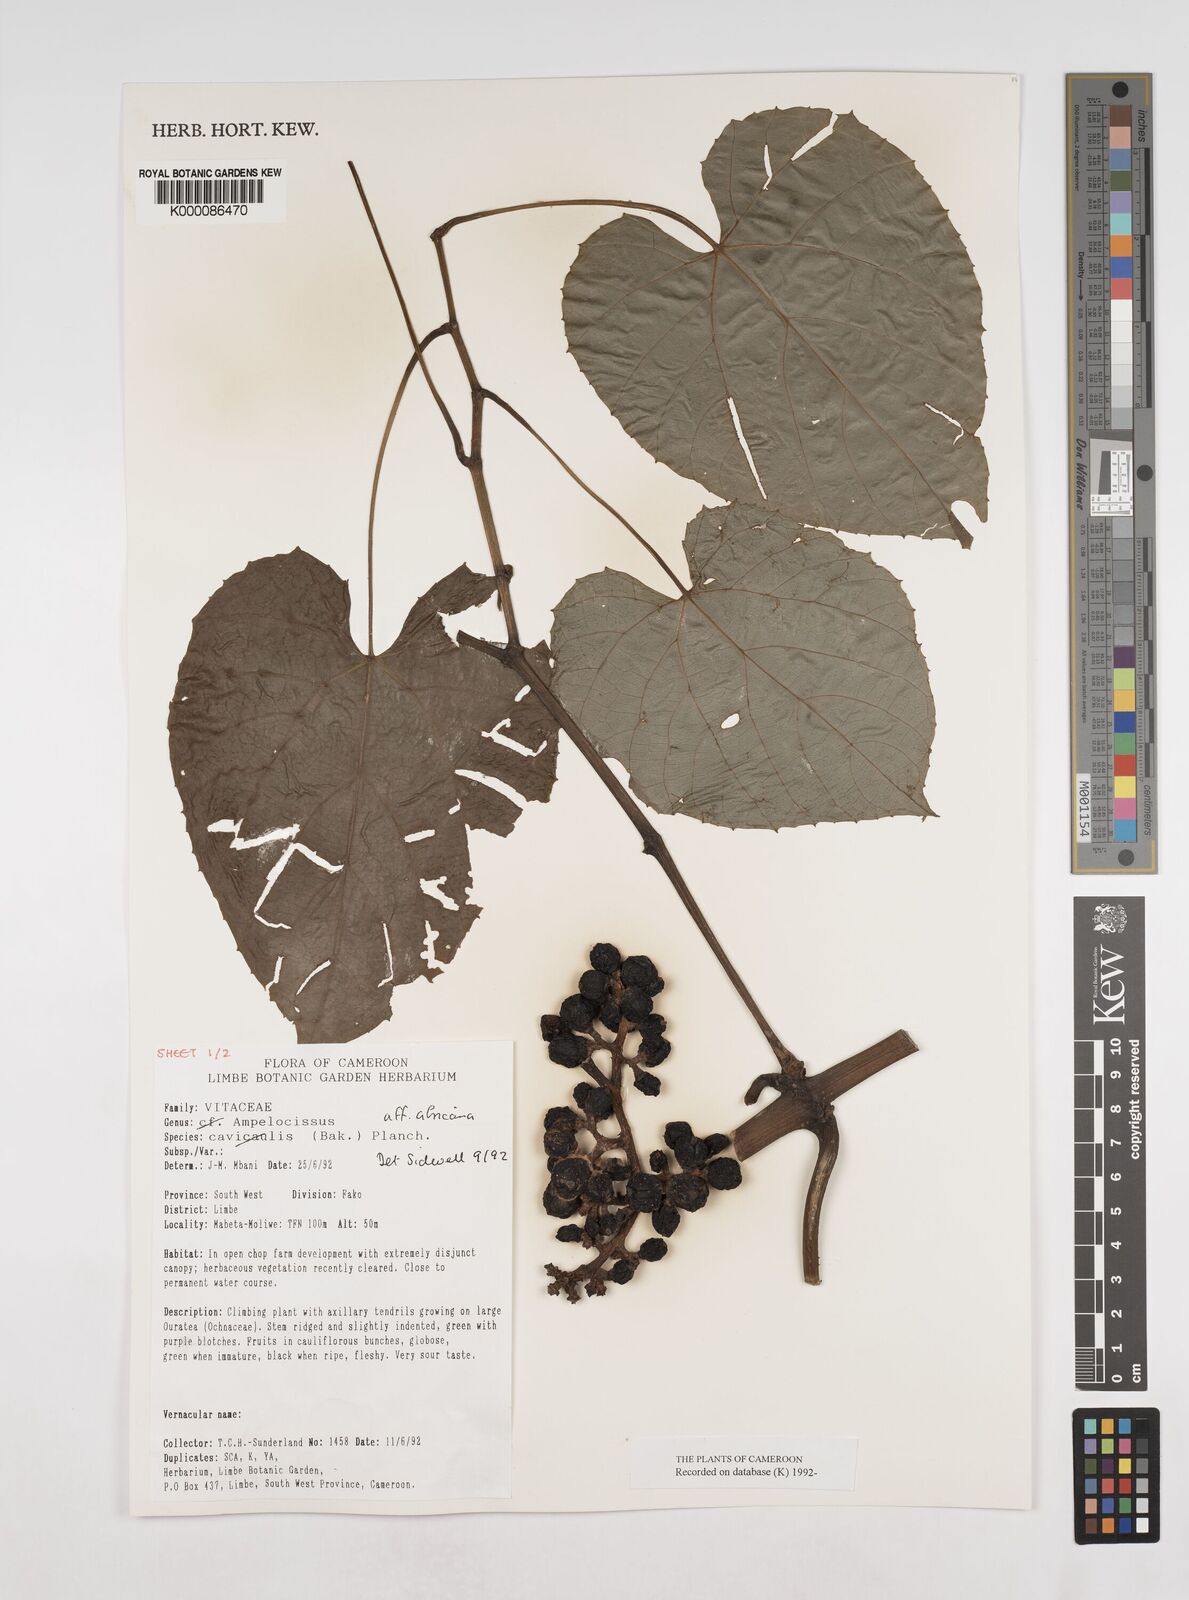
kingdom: Plantae
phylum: Tracheophyta
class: Magnoliopsida
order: Vitales
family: Vitaceae
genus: Ampelocissus
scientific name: Ampelocissus africana
